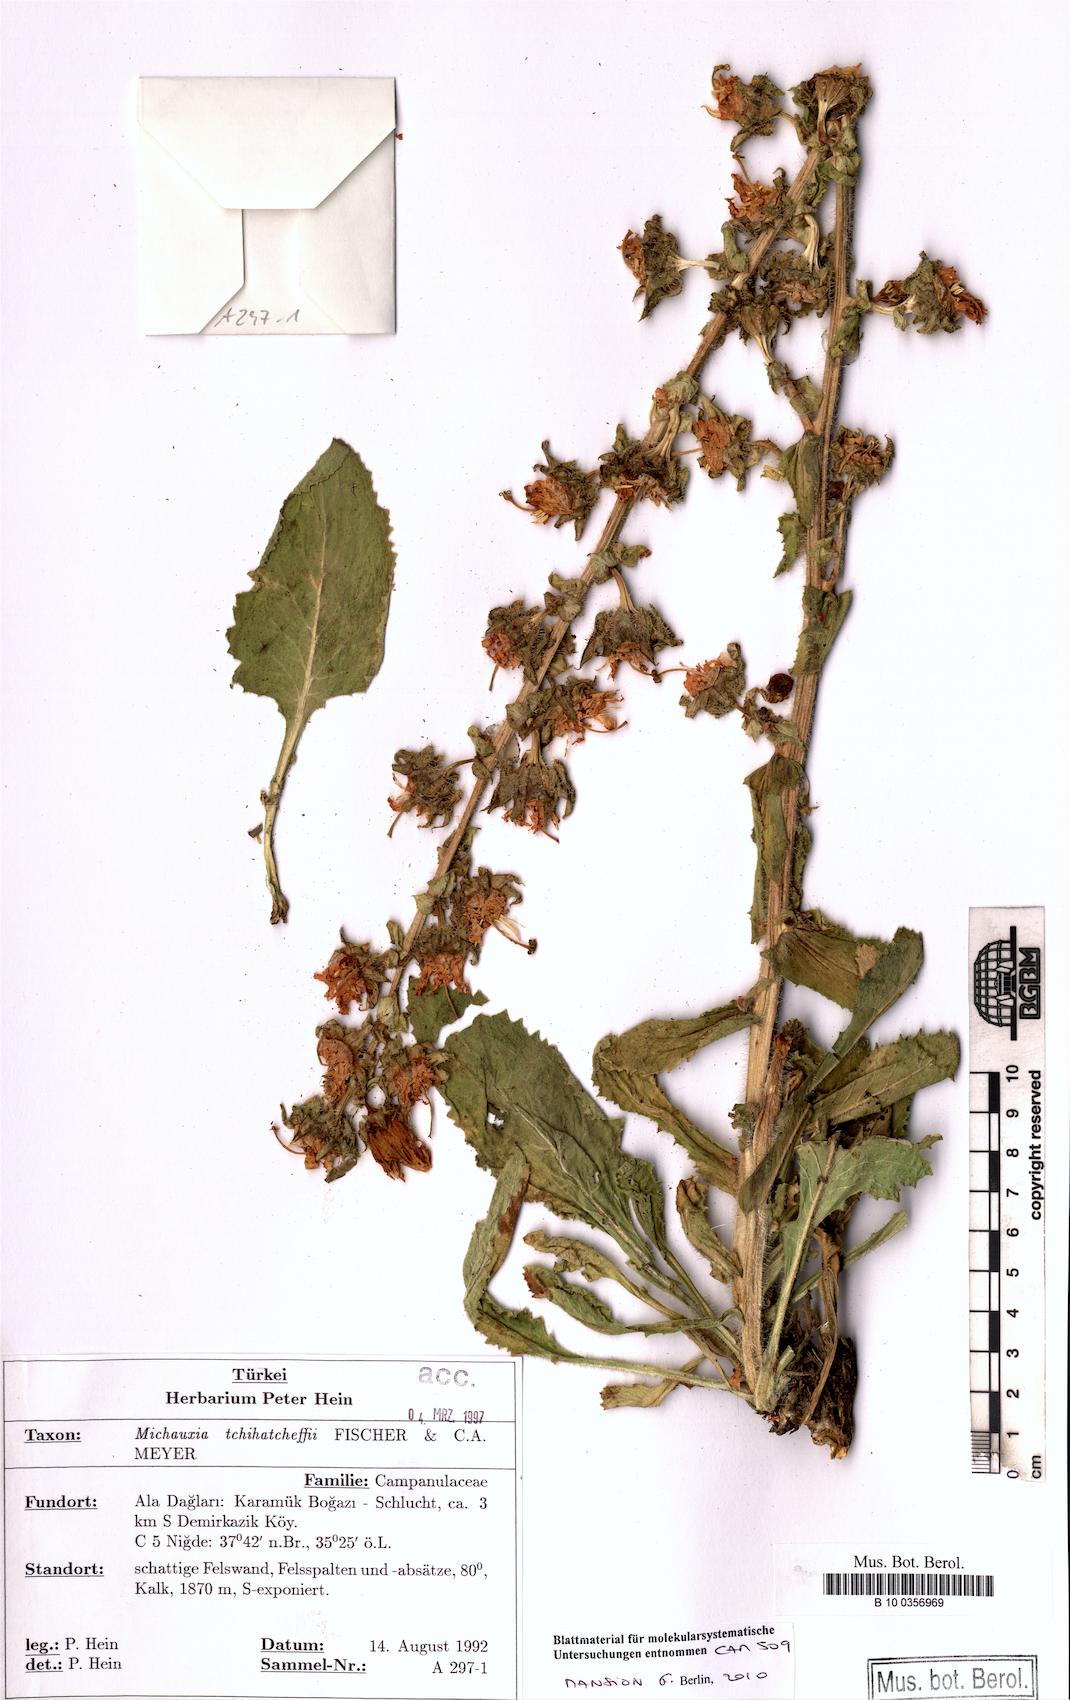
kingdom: Plantae
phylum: Tracheophyta
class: Magnoliopsida
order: Asterales
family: Campanulaceae
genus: Michauxia
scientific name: Michauxia tchihatcheffii
